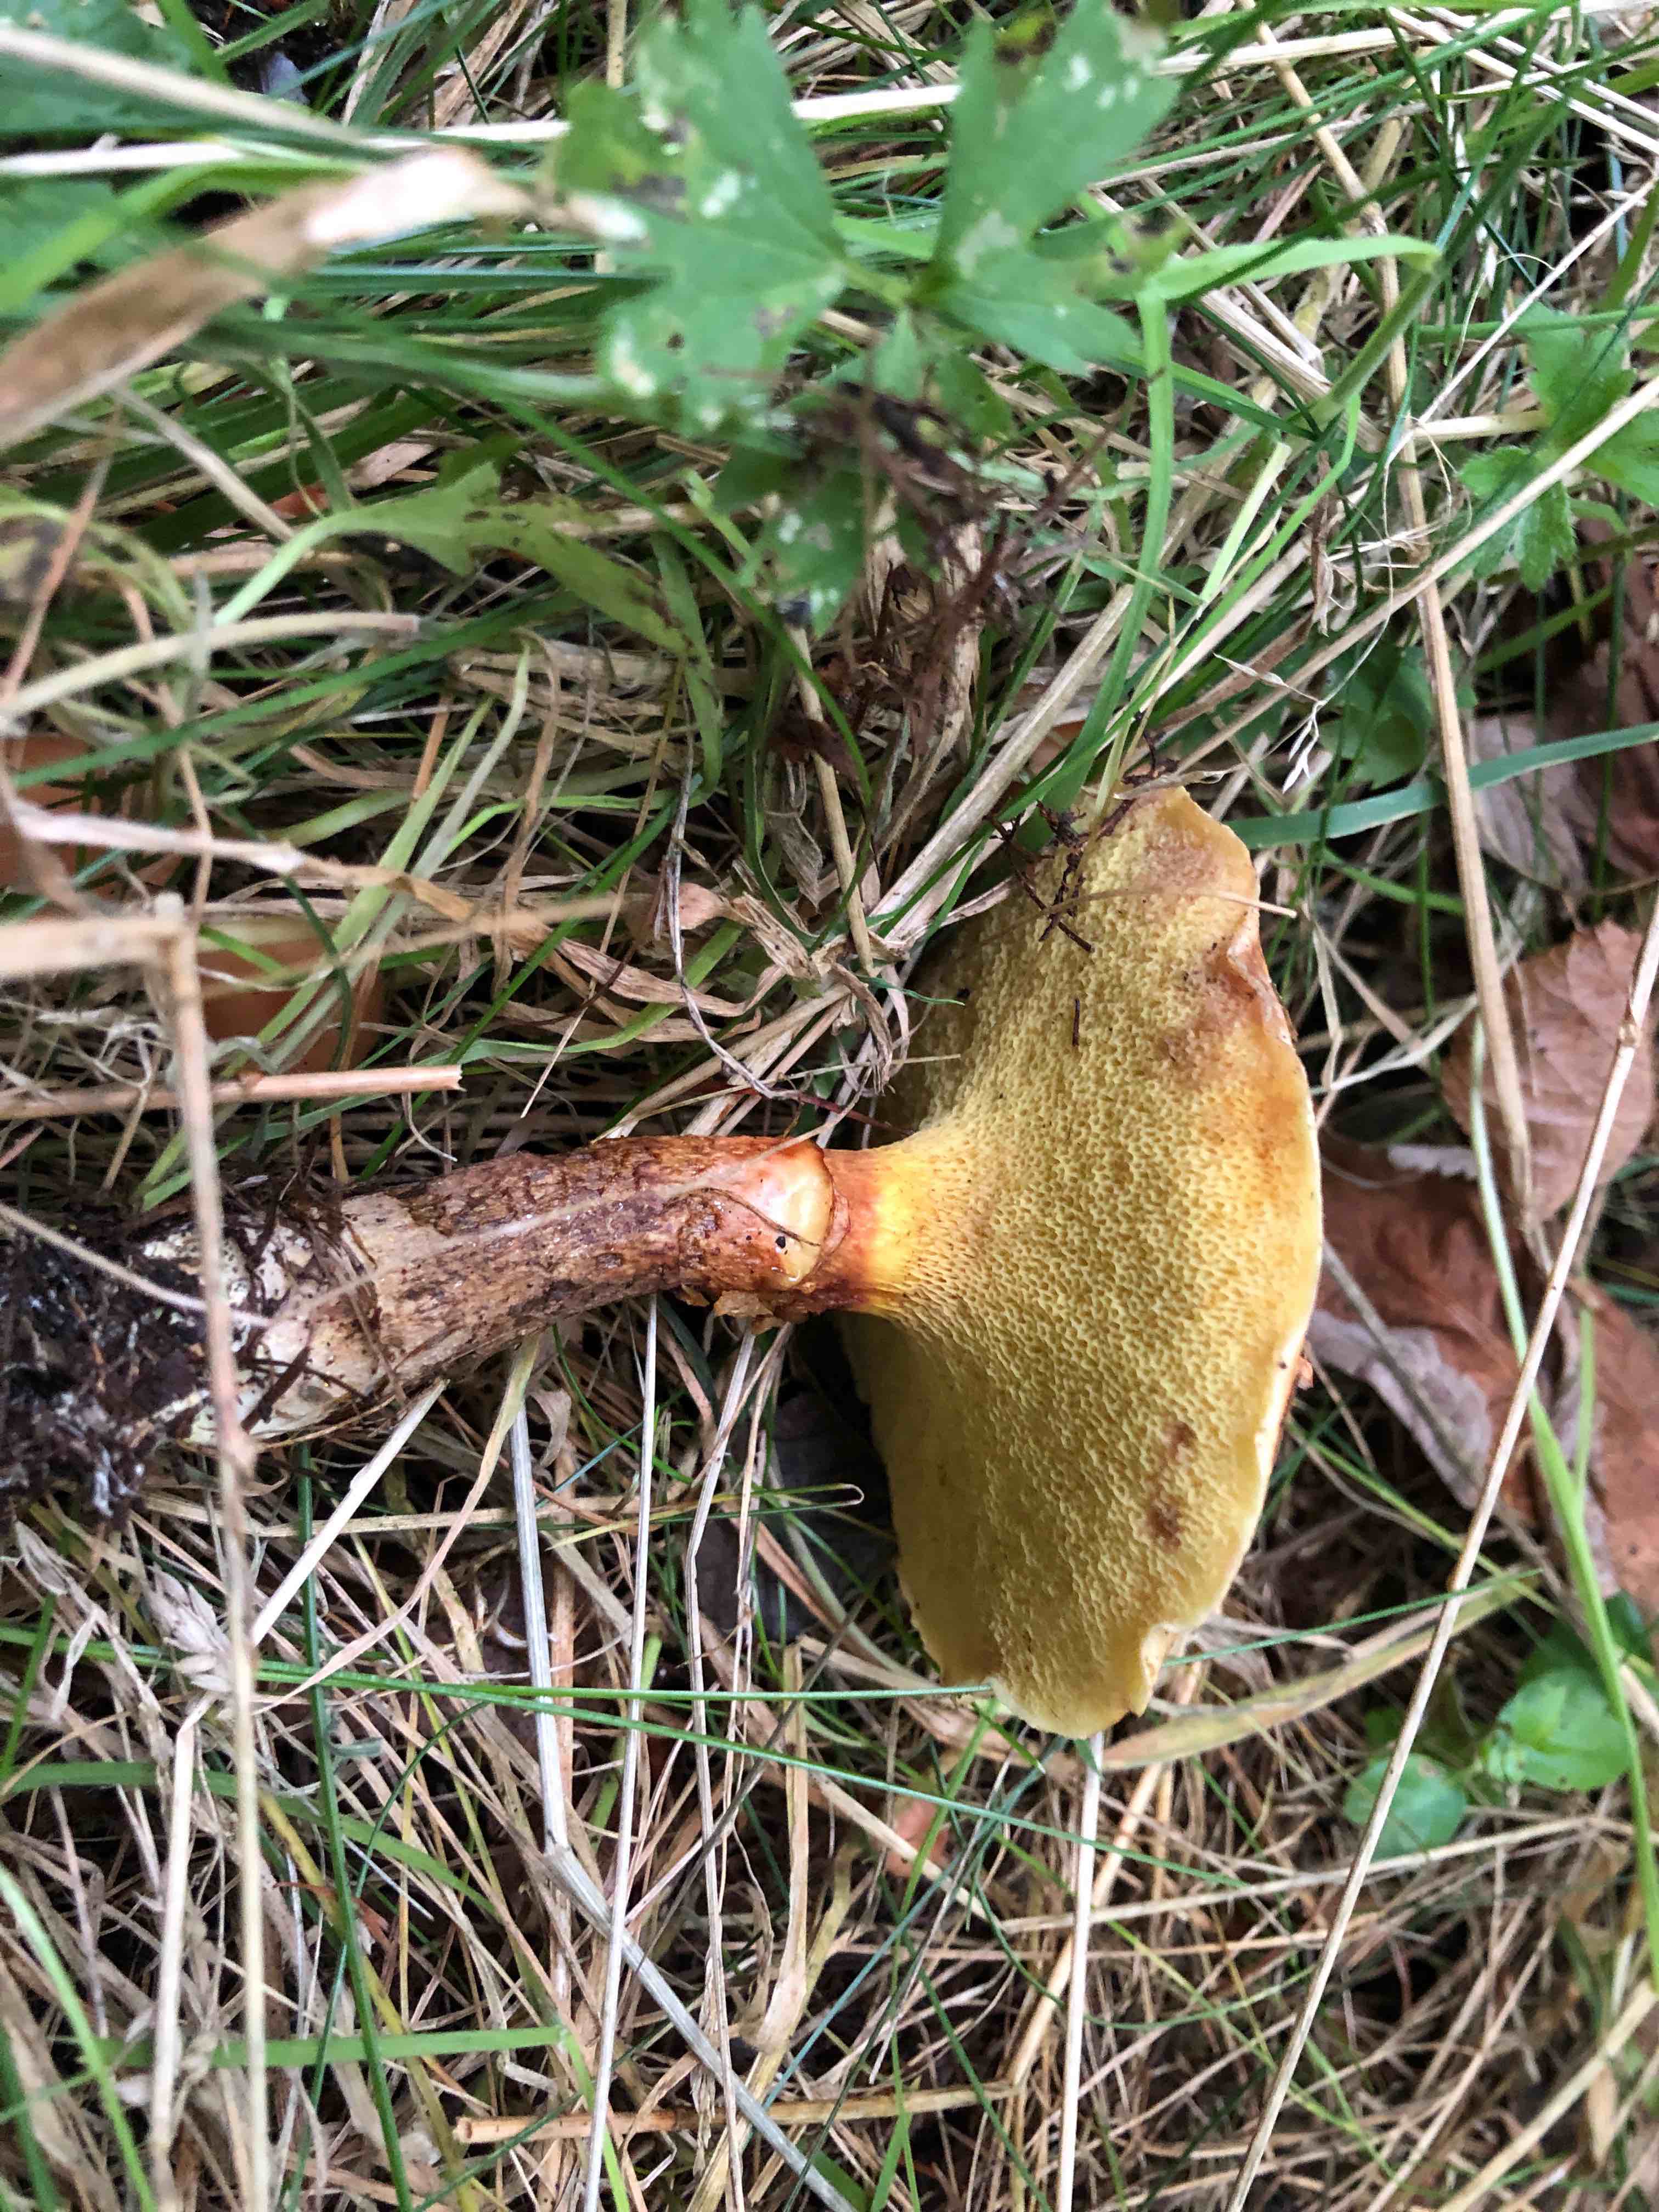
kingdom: Fungi
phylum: Basidiomycota
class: Agaricomycetes
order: Boletales
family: Suillaceae
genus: Suillus
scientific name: Suillus grevillei
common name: lærke-slimrørhat
